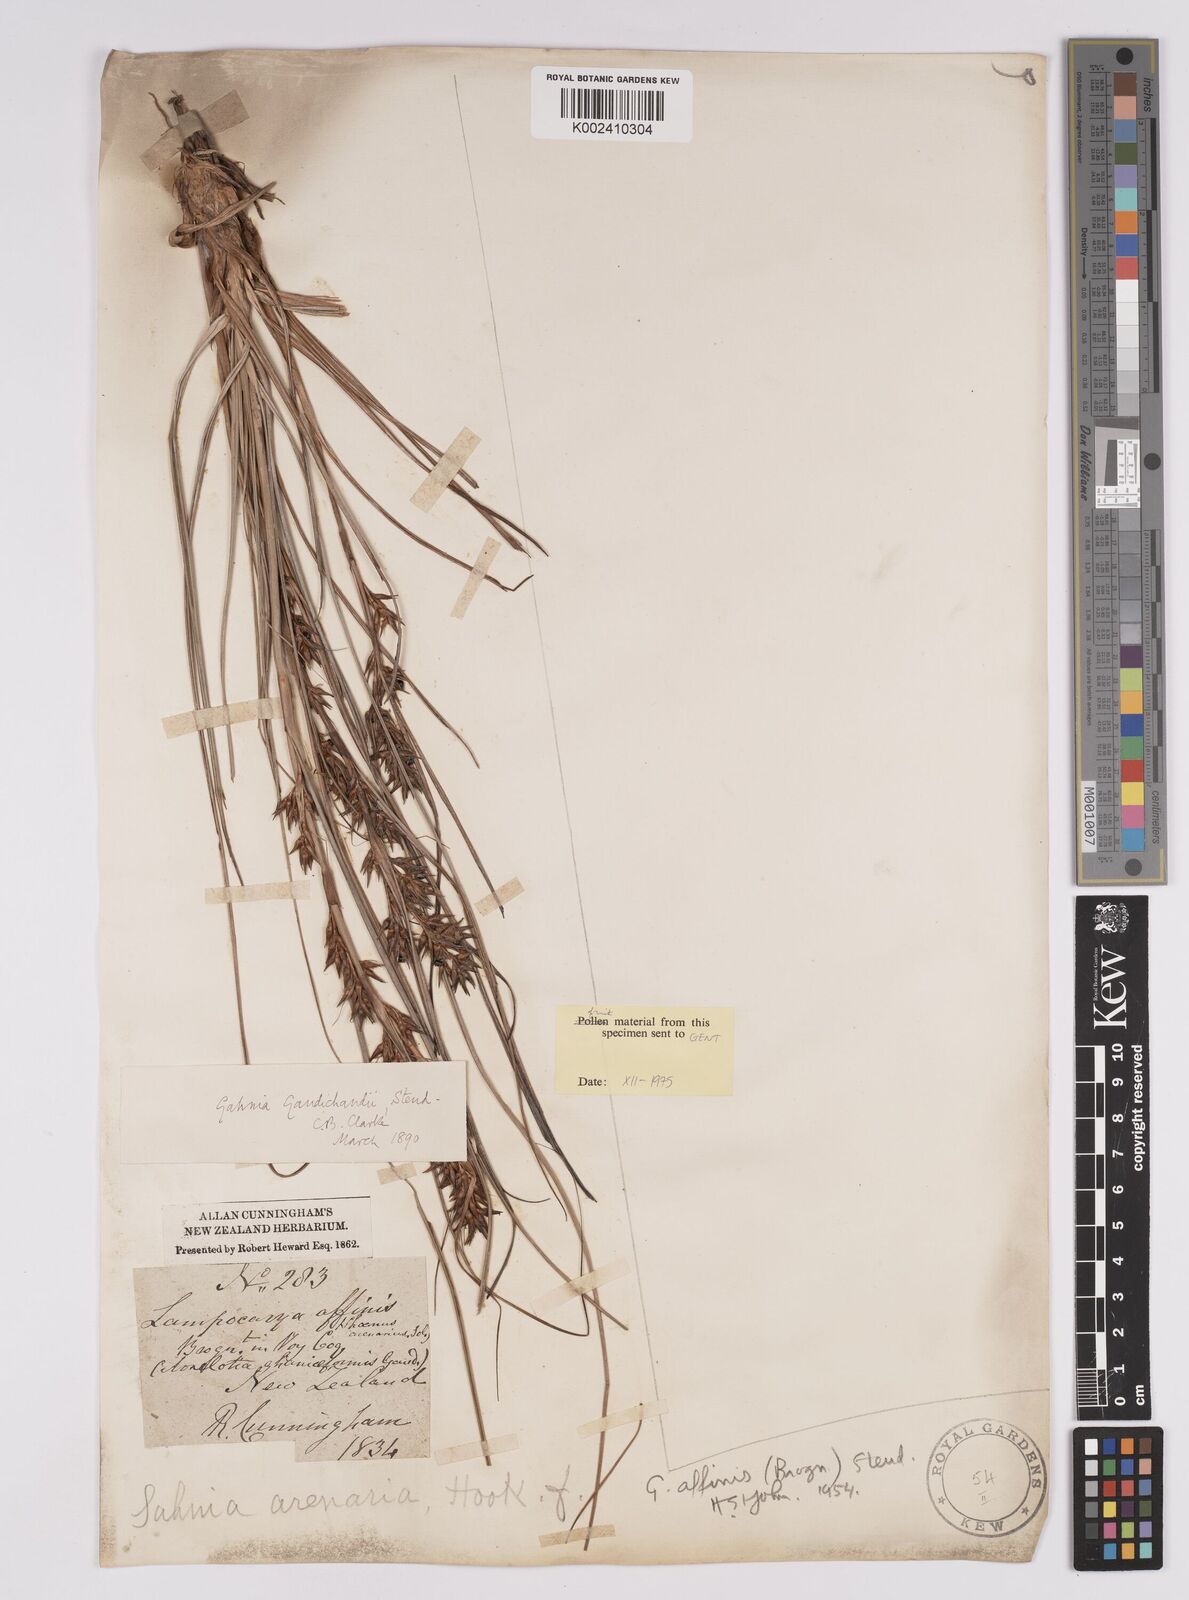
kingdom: Plantae
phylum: Tracheophyta
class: Liliopsida
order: Poales
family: Cyperaceae
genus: Morelotia
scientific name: Morelotia affinis
